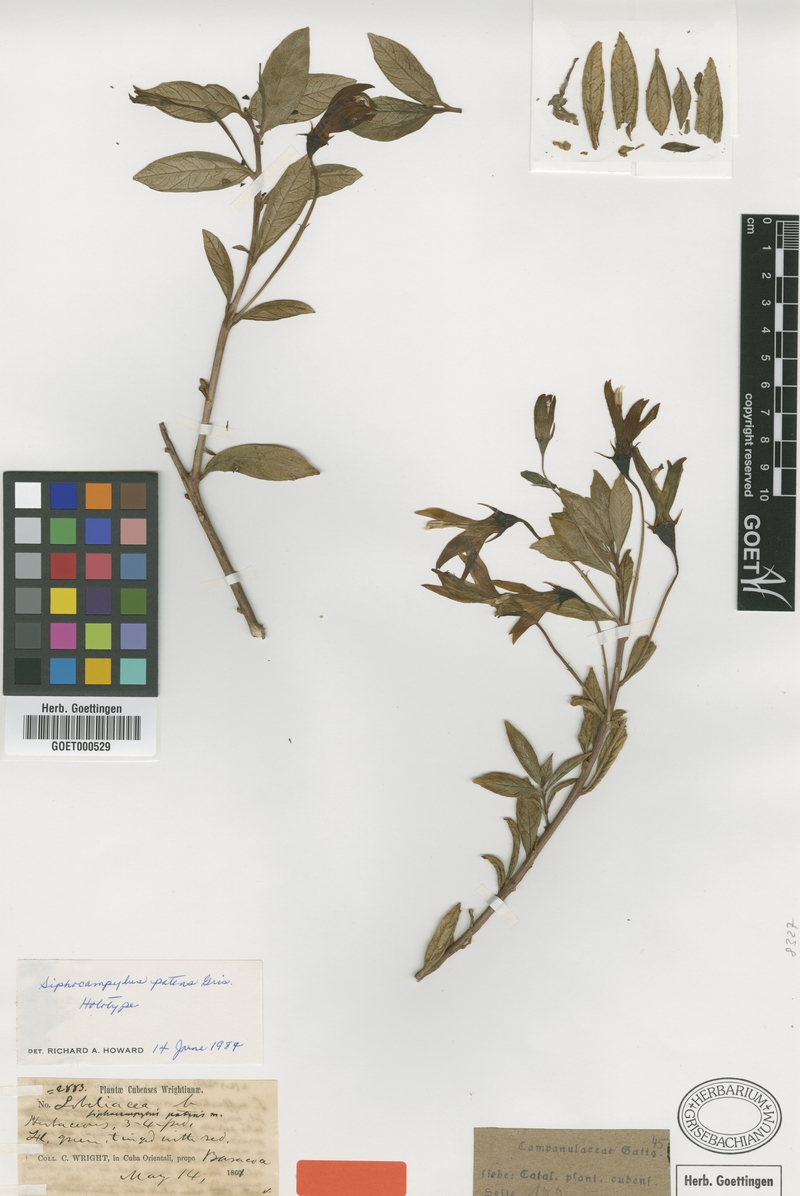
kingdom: Plantae
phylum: Tracheophyta
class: Magnoliopsida
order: Asterales
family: Campanulaceae
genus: Siphocampylus
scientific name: Siphocampylus patens
